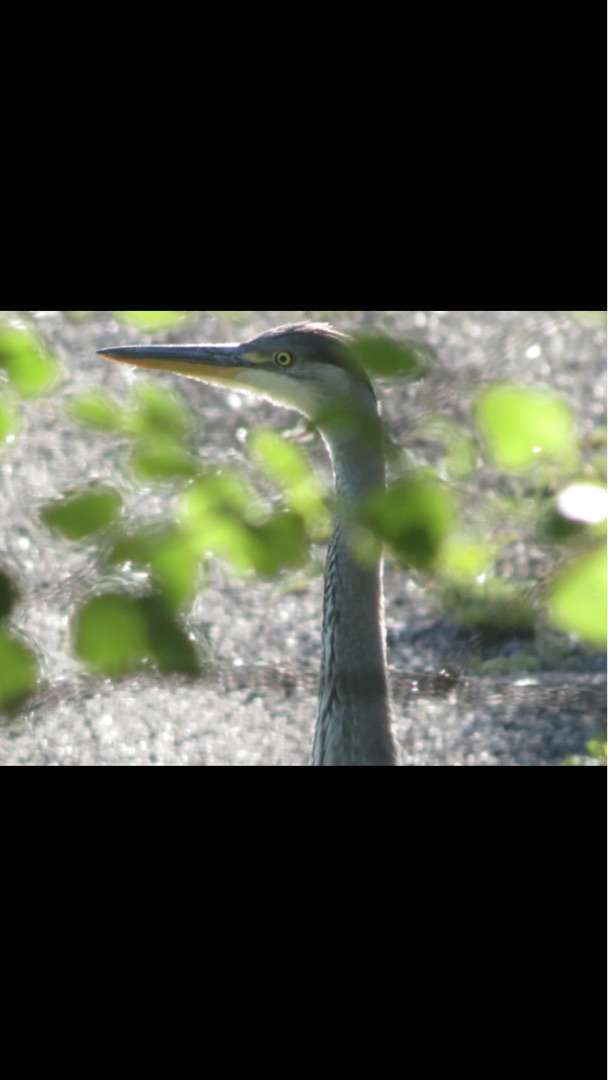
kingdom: Animalia
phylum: Chordata
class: Aves
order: Pelecaniformes
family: Ardeidae
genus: Ardea
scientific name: Ardea cinerea
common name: Fiskehejre
